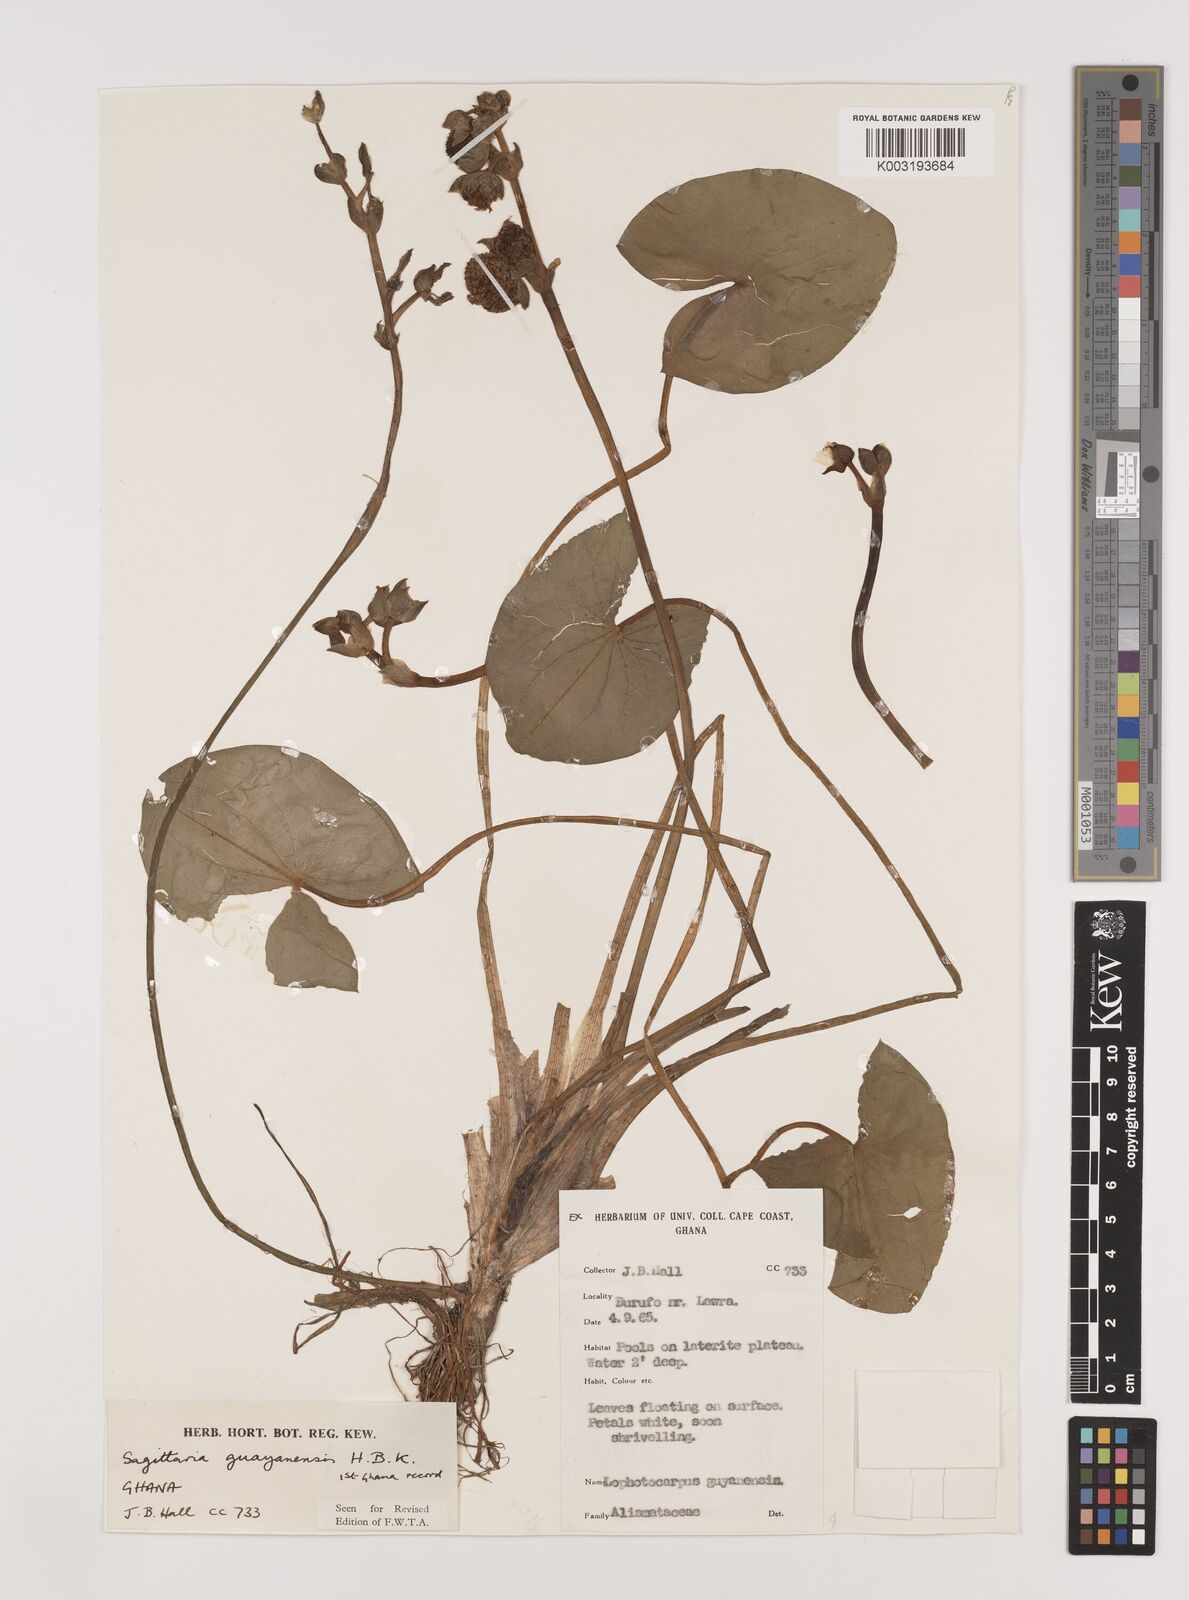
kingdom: Plantae
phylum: Tracheophyta
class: Liliopsida
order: Alismatales
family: Alismataceae
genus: Sagittaria
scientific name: Sagittaria guayanensis
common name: Guyanese arrowhead
